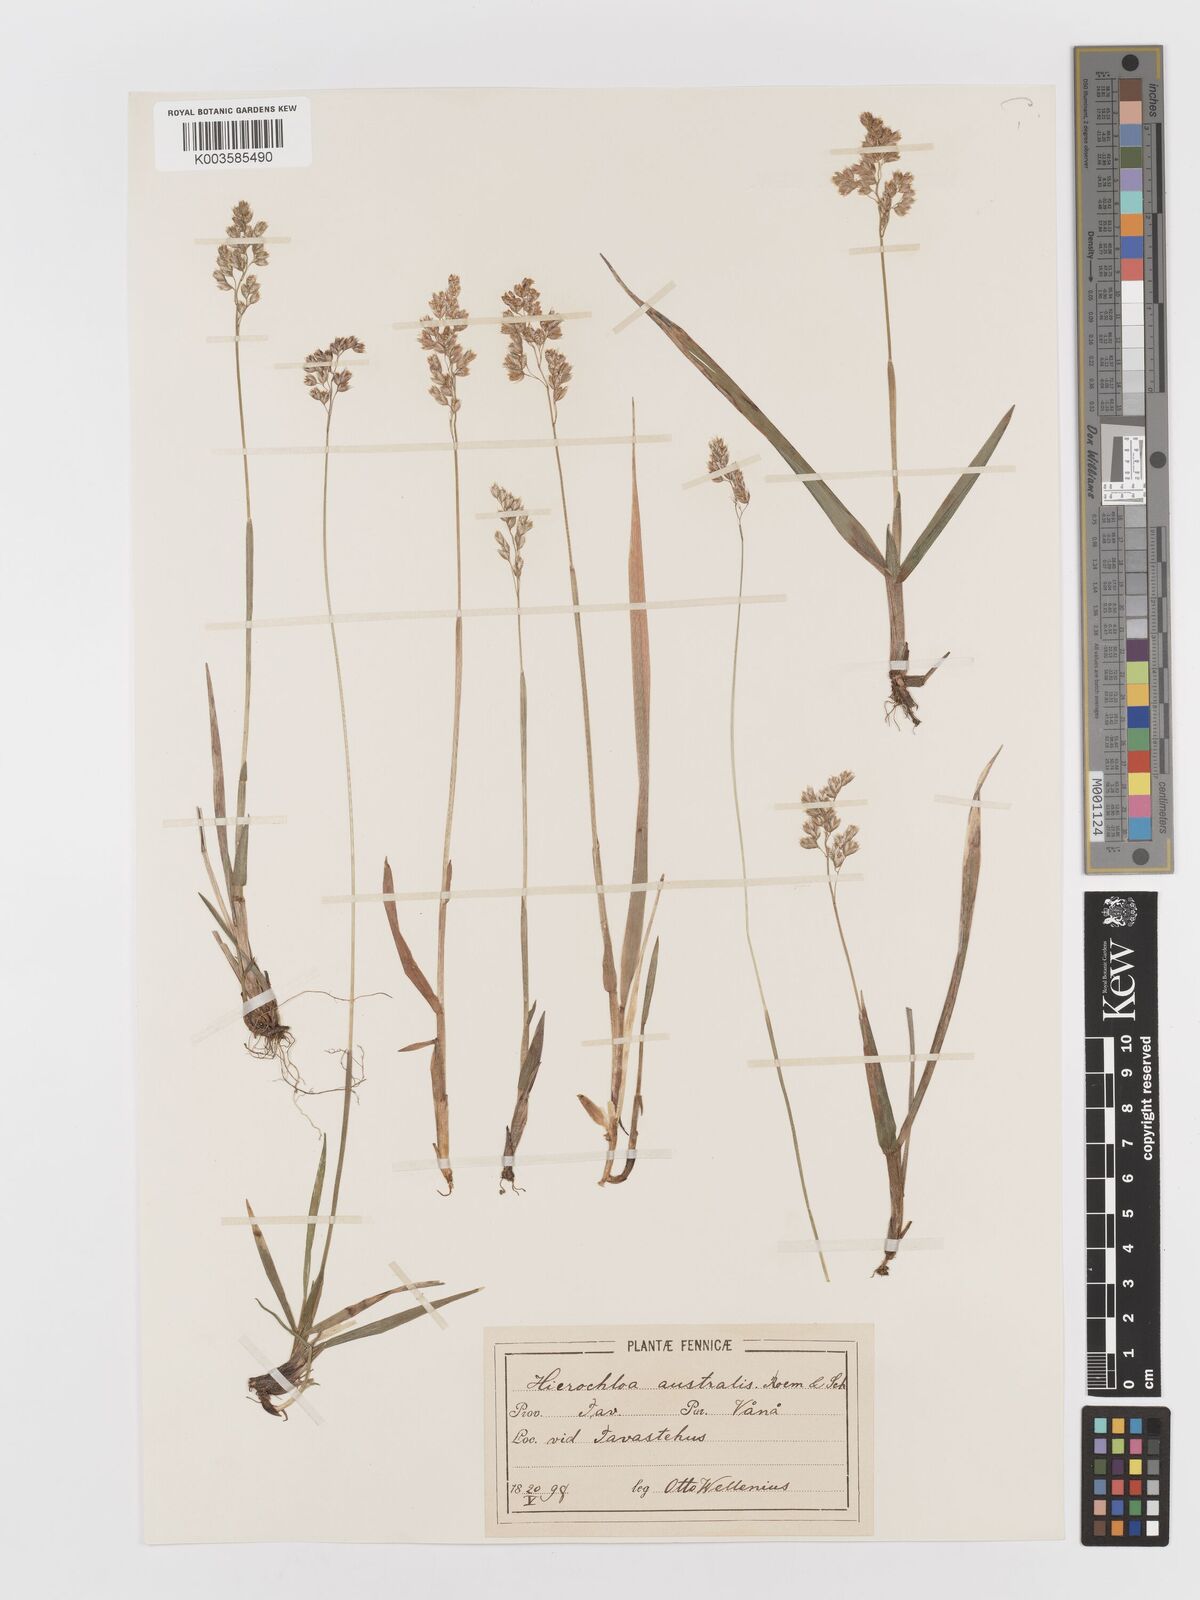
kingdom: Plantae
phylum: Tracheophyta
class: Liliopsida
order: Poales
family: Poaceae
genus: Anthoxanthum
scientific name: Anthoxanthum australe
